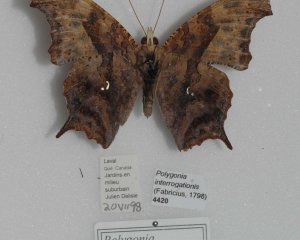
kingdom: Animalia
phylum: Arthropoda
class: Insecta
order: Lepidoptera
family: Nymphalidae
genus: Polygonia
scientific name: Polygonia interrogationis
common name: Question Mark
